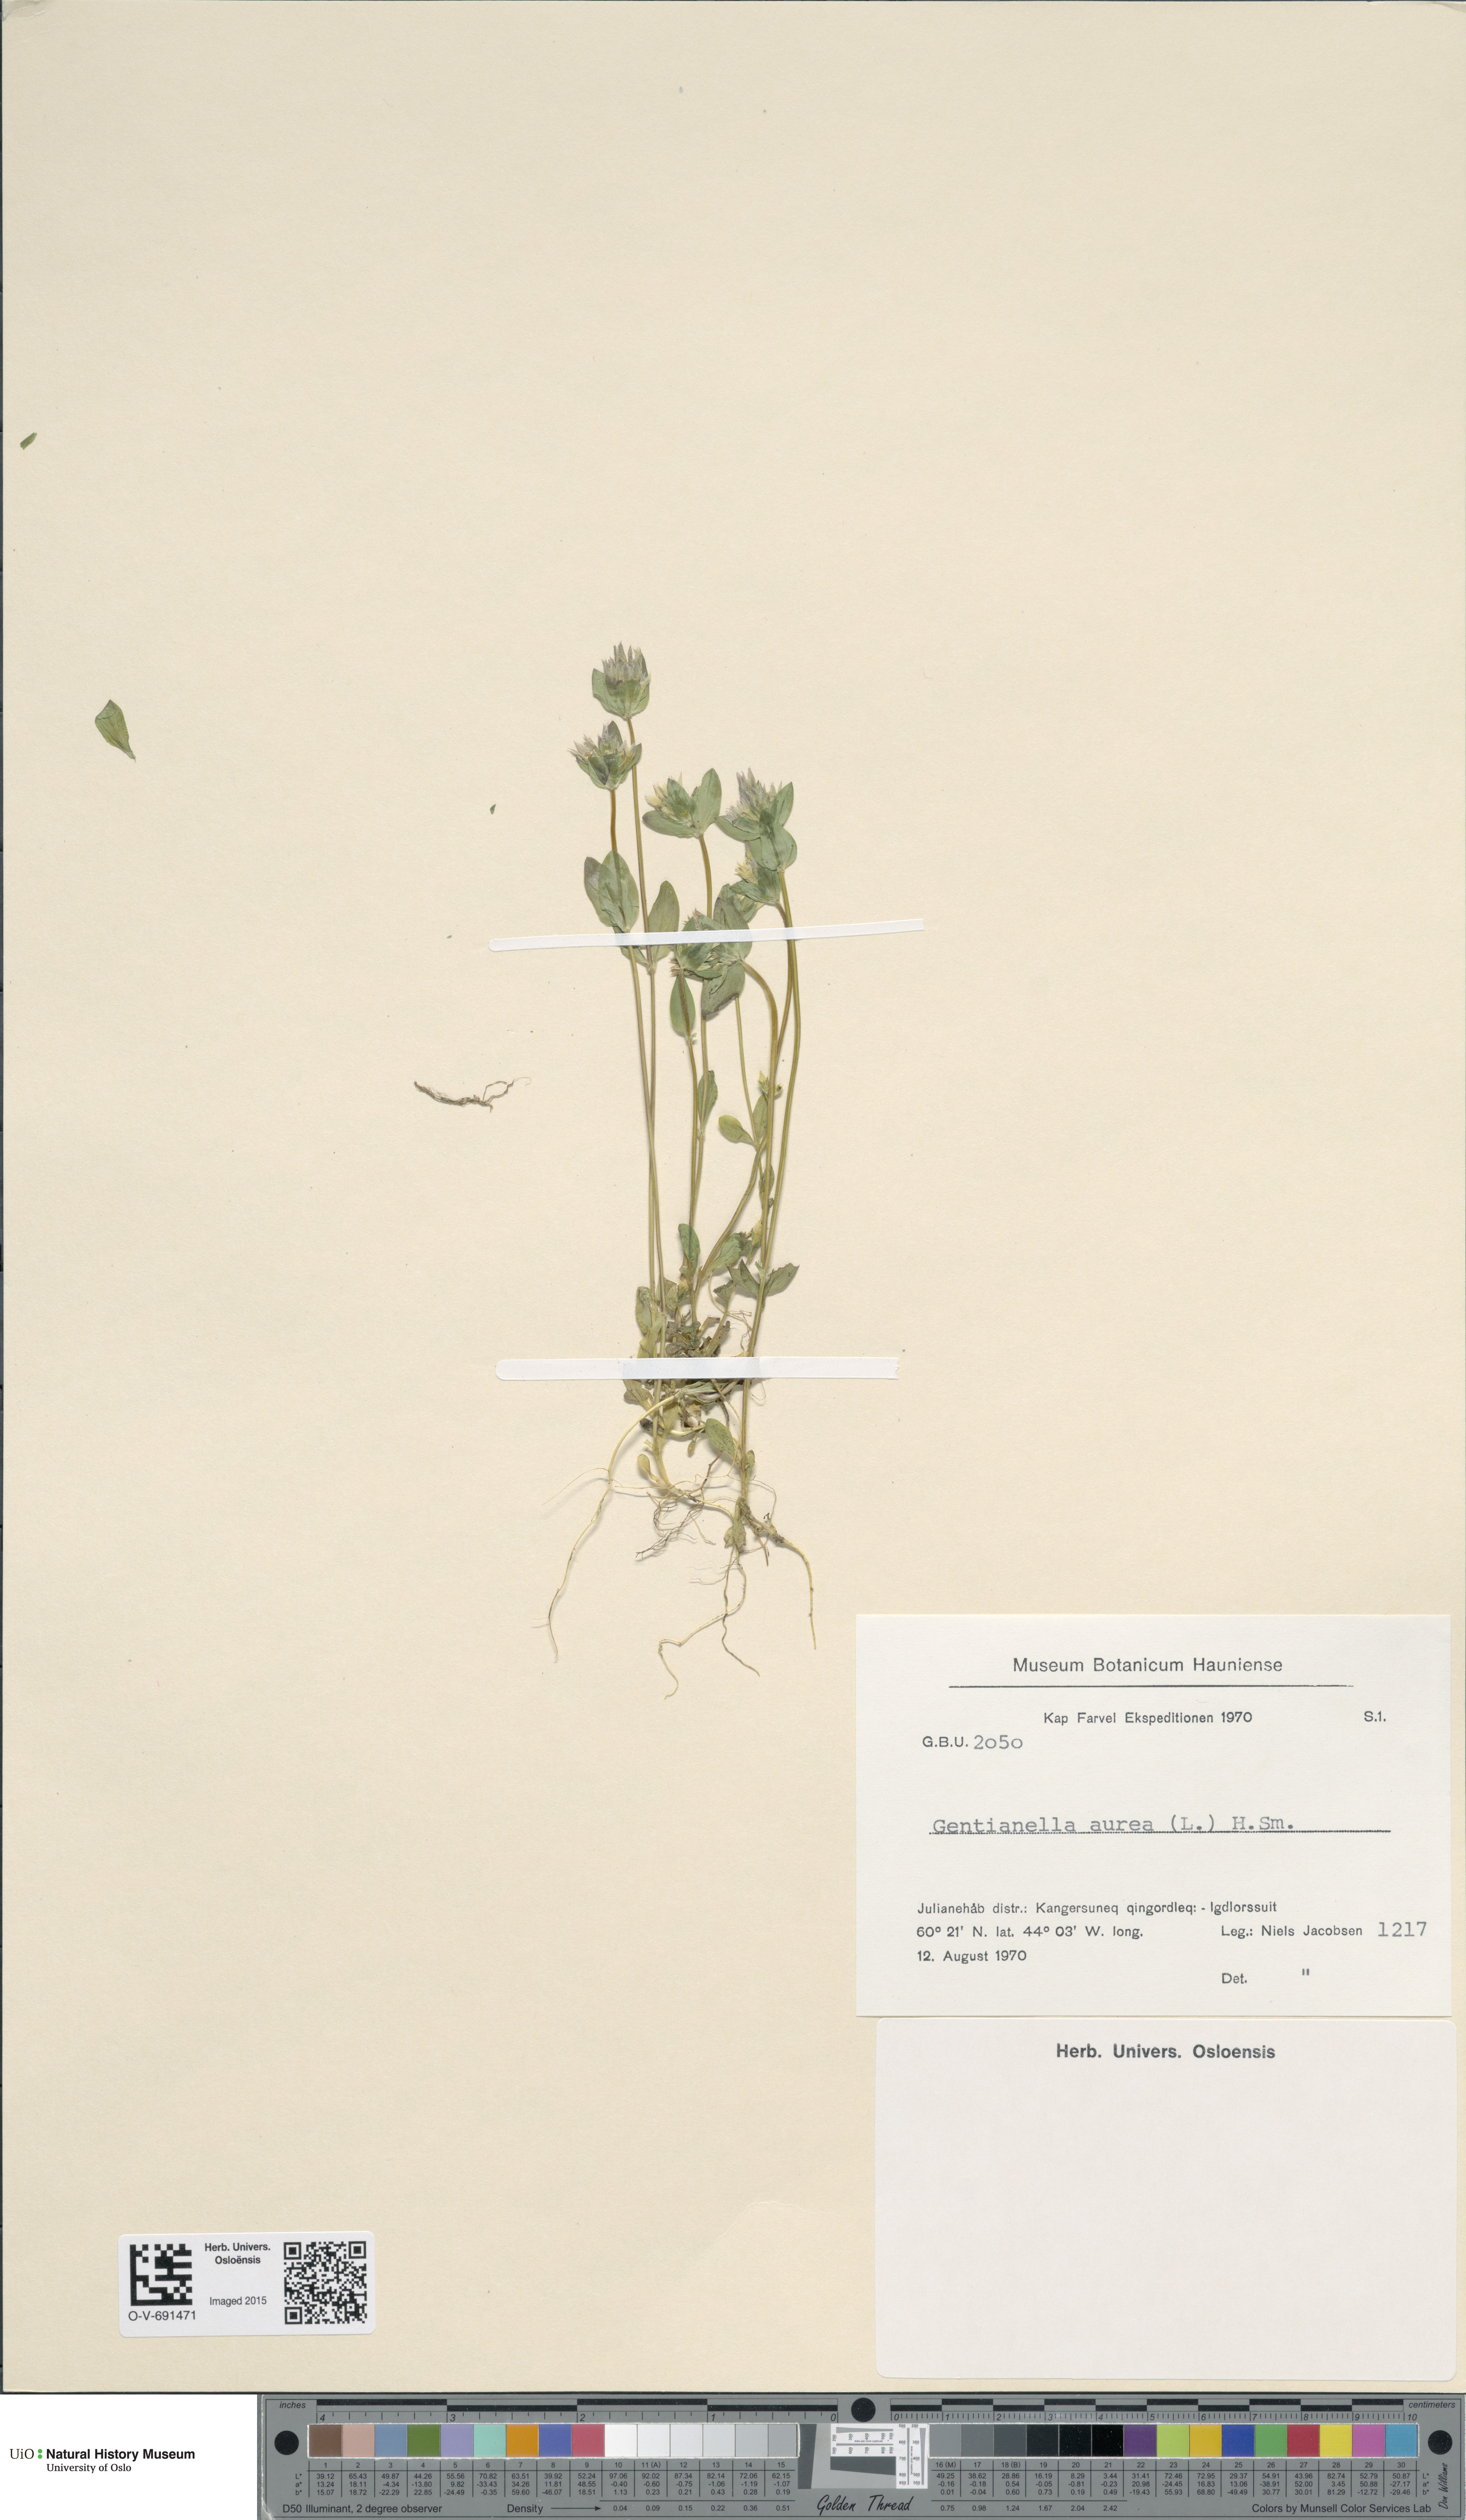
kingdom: Plantae
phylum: Tracheophyta
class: Magnoliopsida
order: Gentianales
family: Gentianaceae
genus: Gentianella
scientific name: Gentianella aurea
